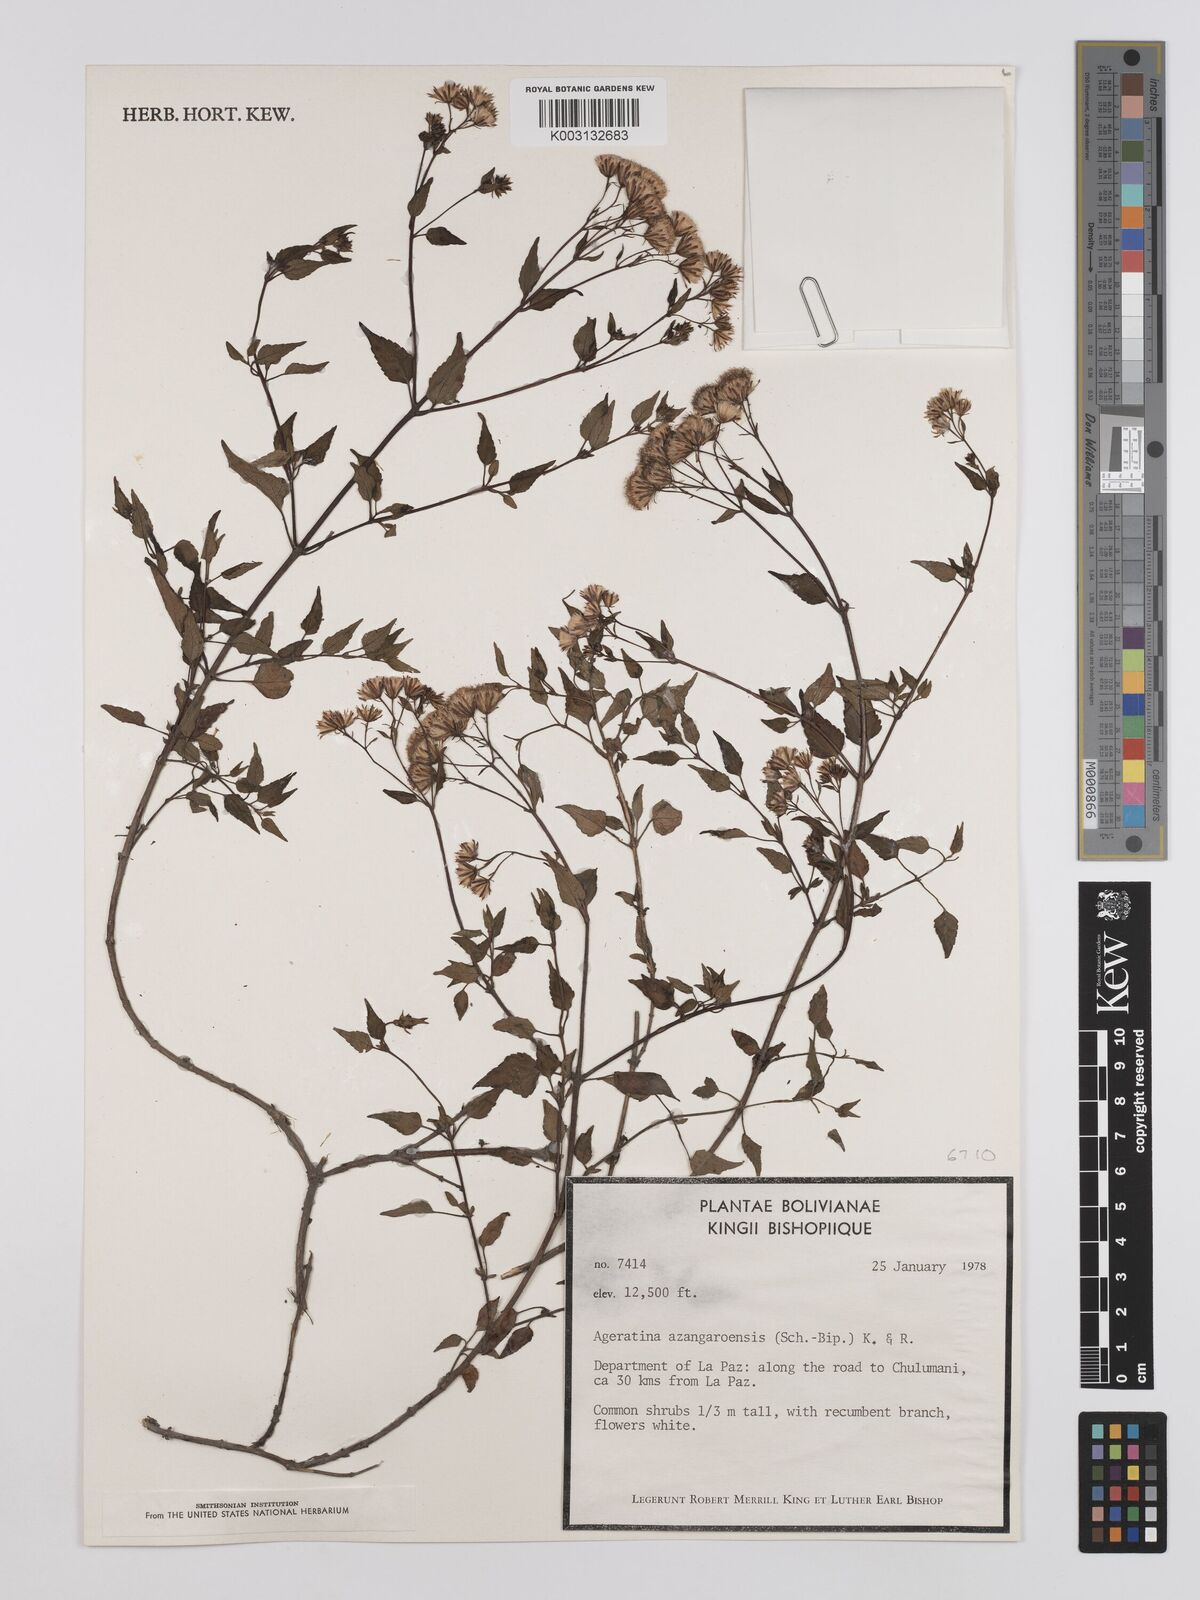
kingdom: Plantae
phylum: Tracheophyta
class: Magnoliopsida
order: Asterales
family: Asteraceae
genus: Ageratina
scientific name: Ageratina glechonophylla
